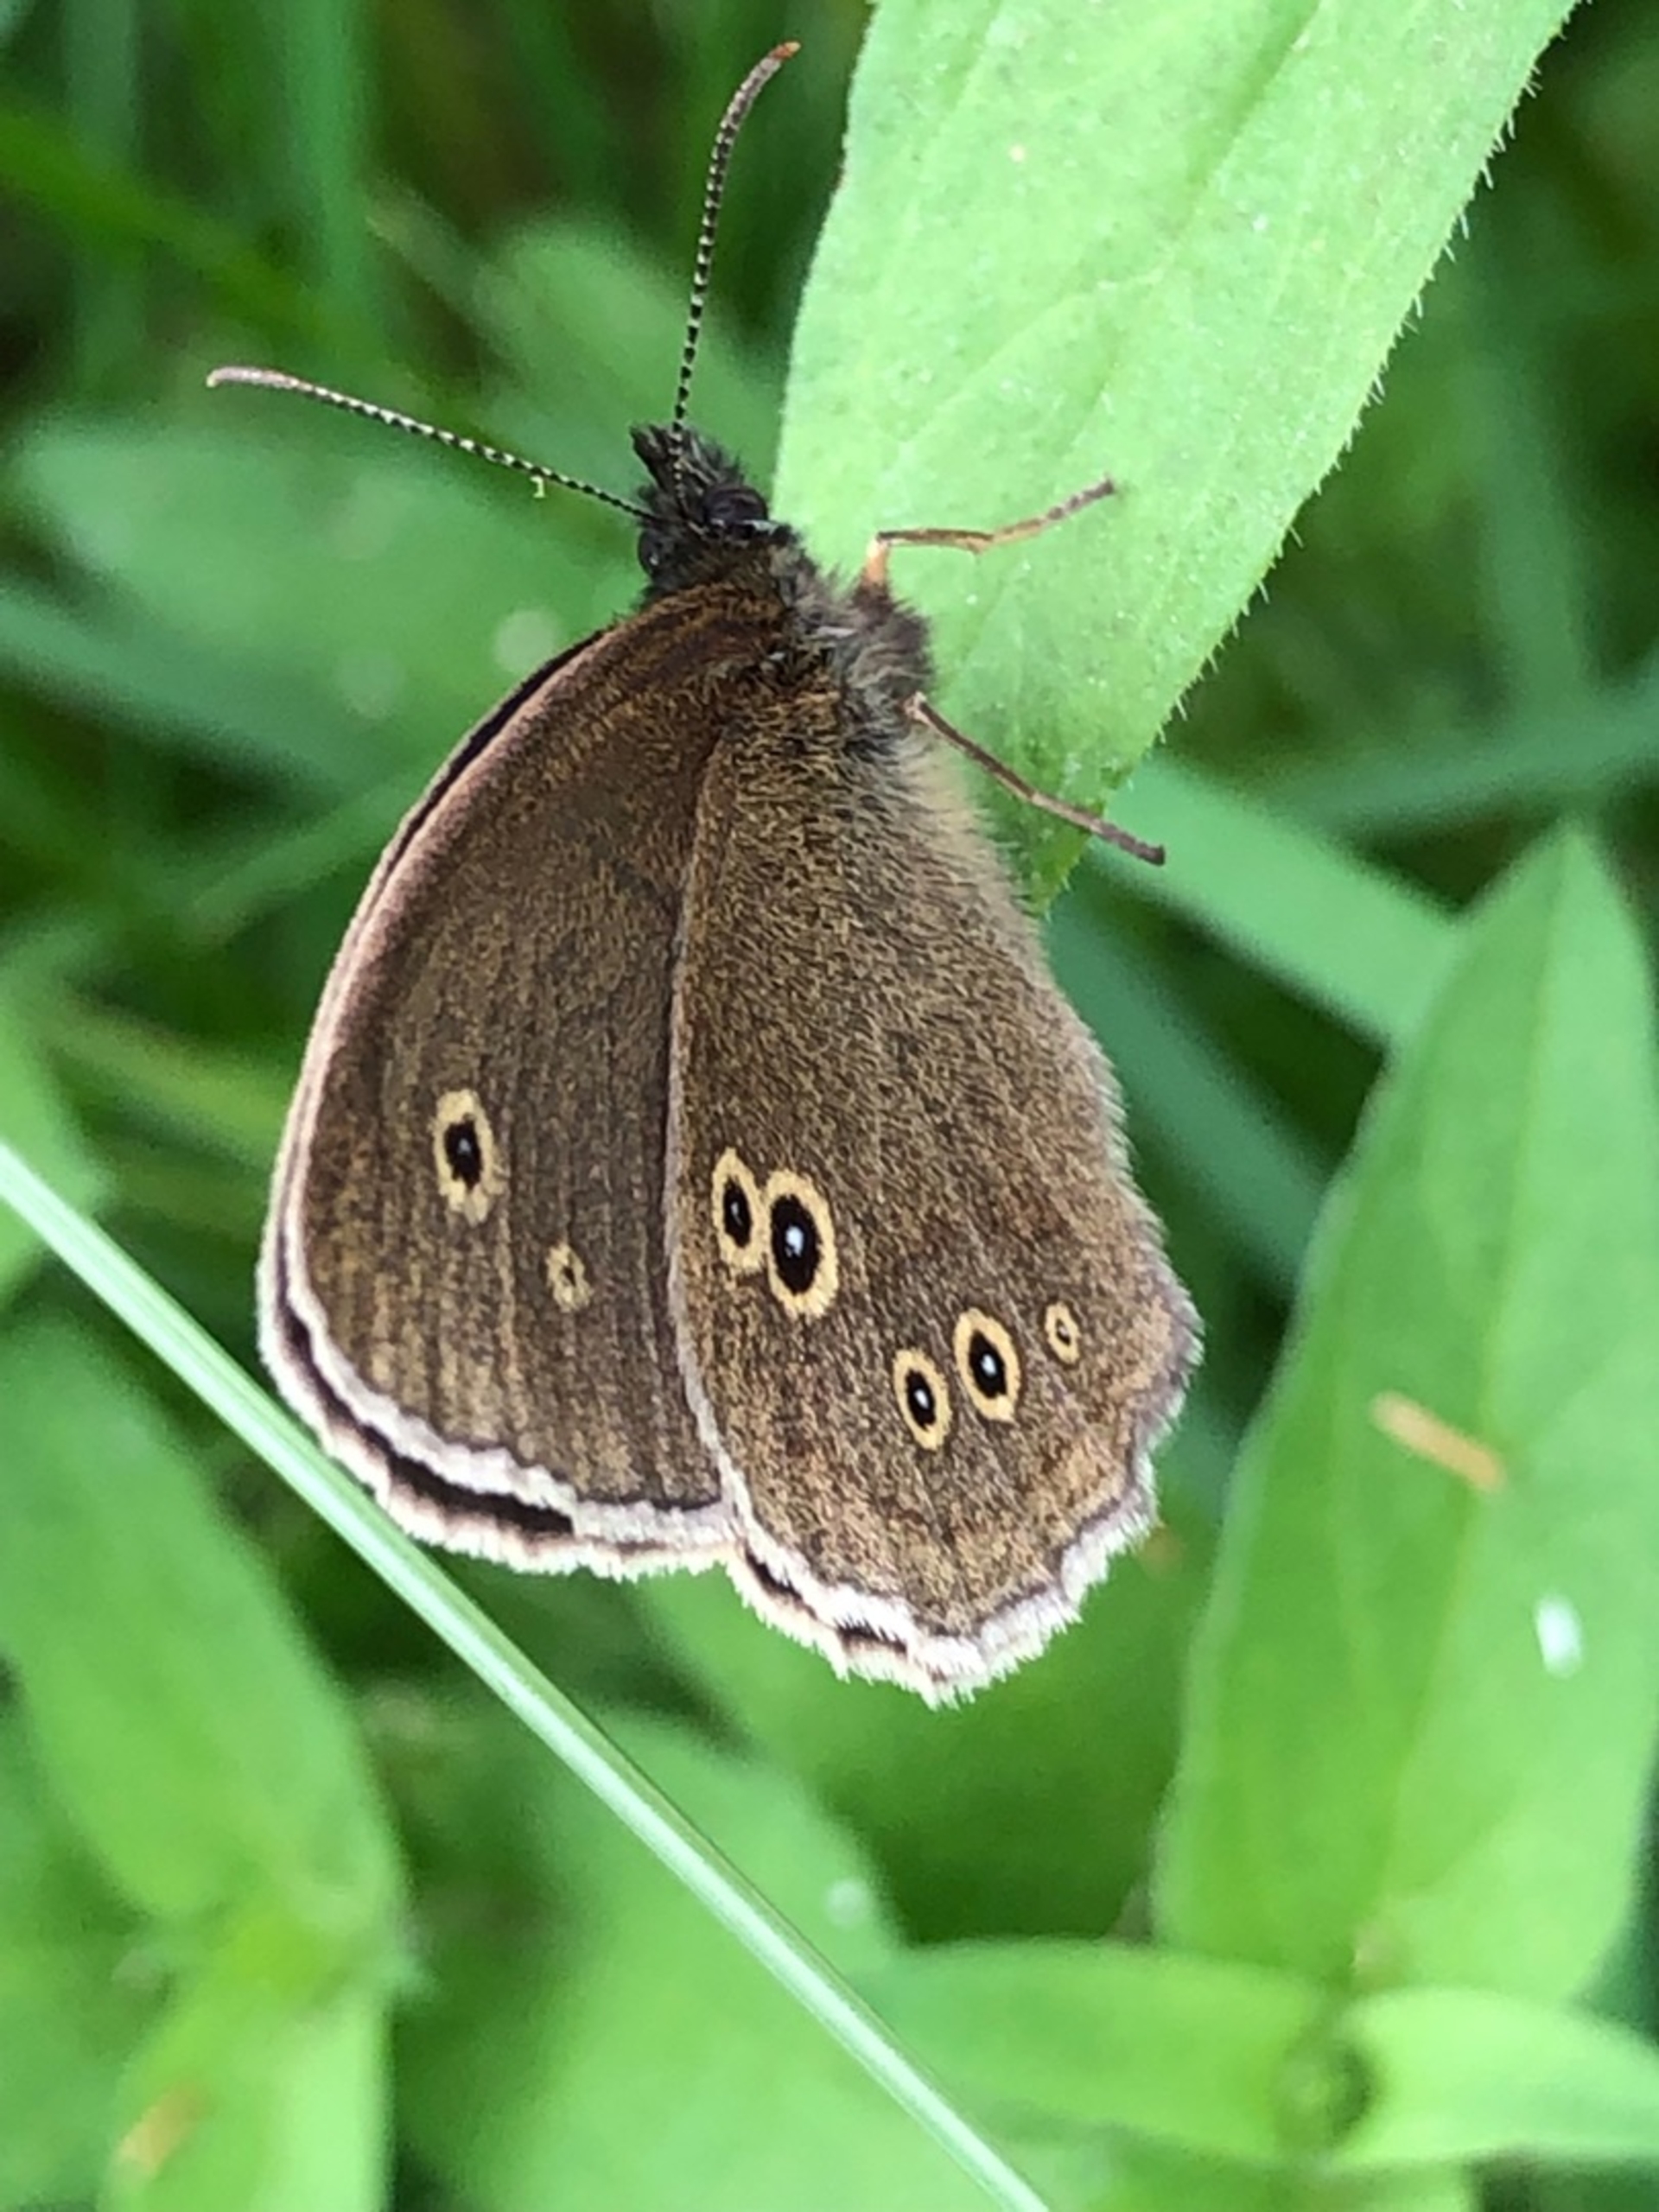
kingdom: Animalia
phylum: Arthropoda
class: Insecta
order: Lepidoptera
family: Nymphalidae
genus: Aphantopus
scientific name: Aphantopus hyperantus
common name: Engrandøje
